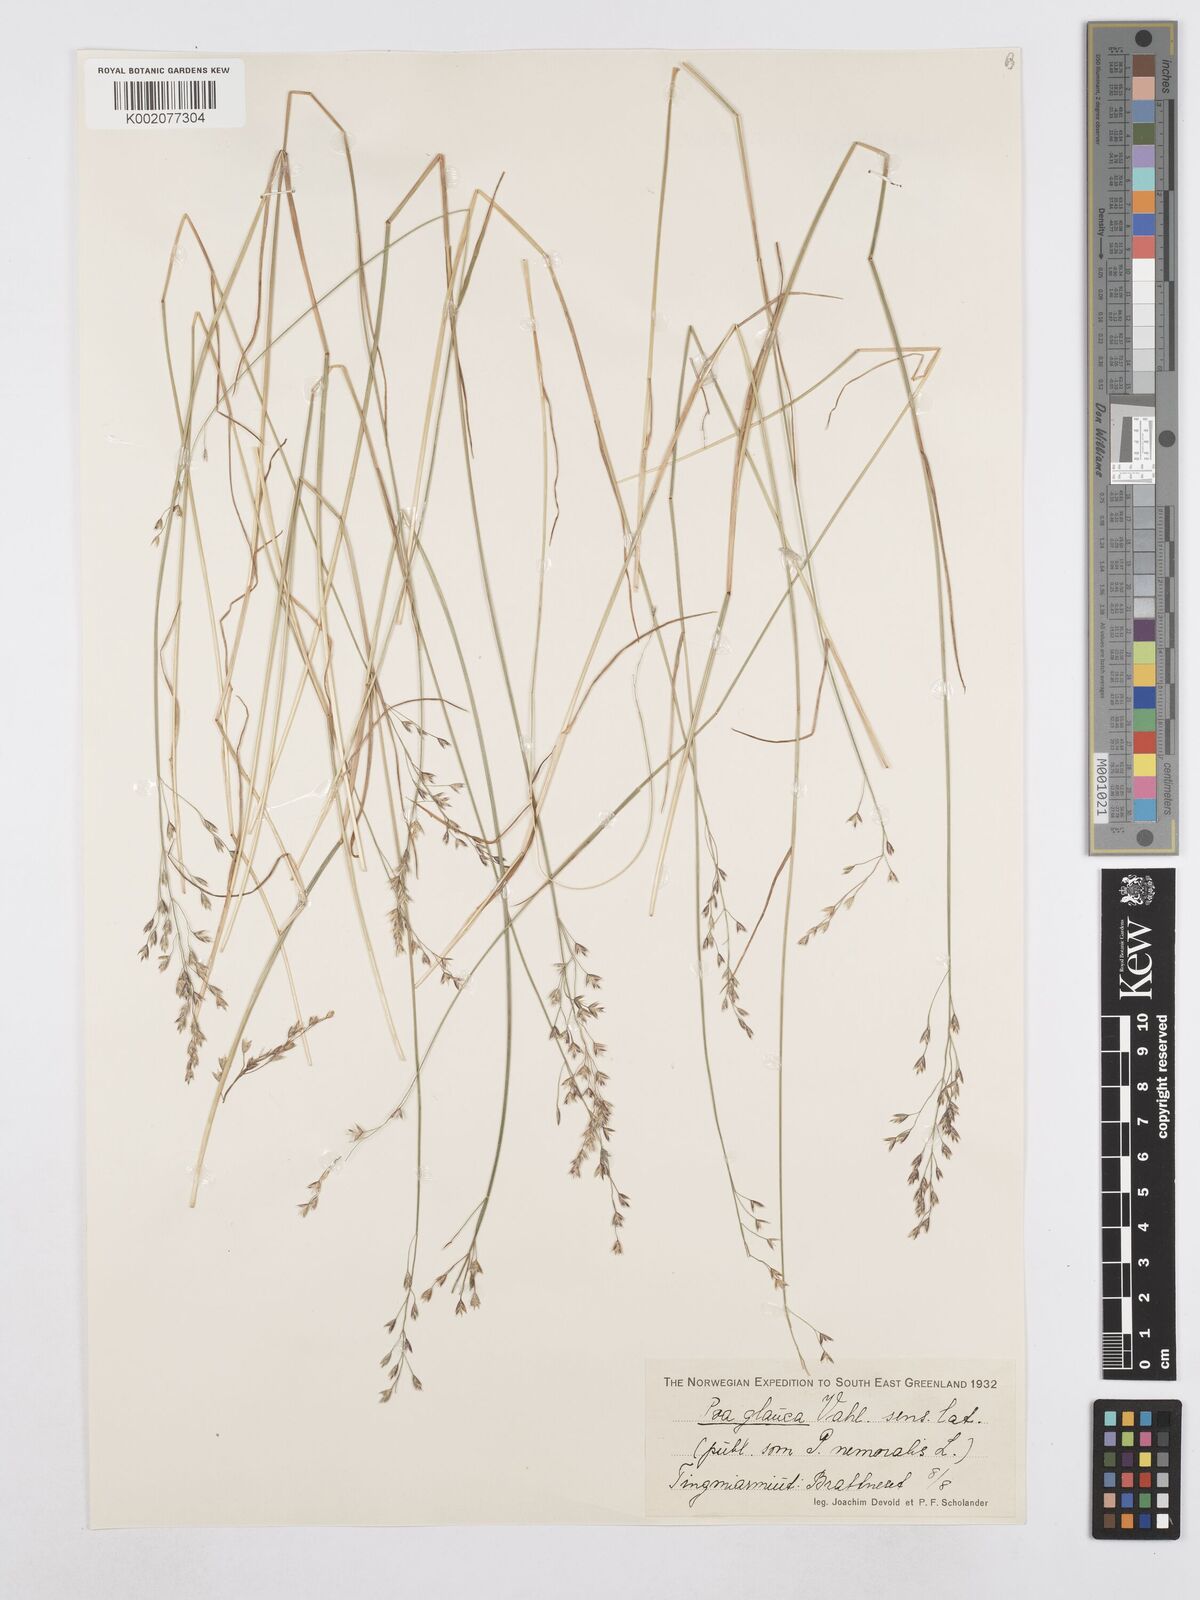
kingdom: Plantae
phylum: Tracheophyta
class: Liliopsida
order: Poales
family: Poaceae
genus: Poa
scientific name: Poa glauca
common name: Glaucous bluegrass
